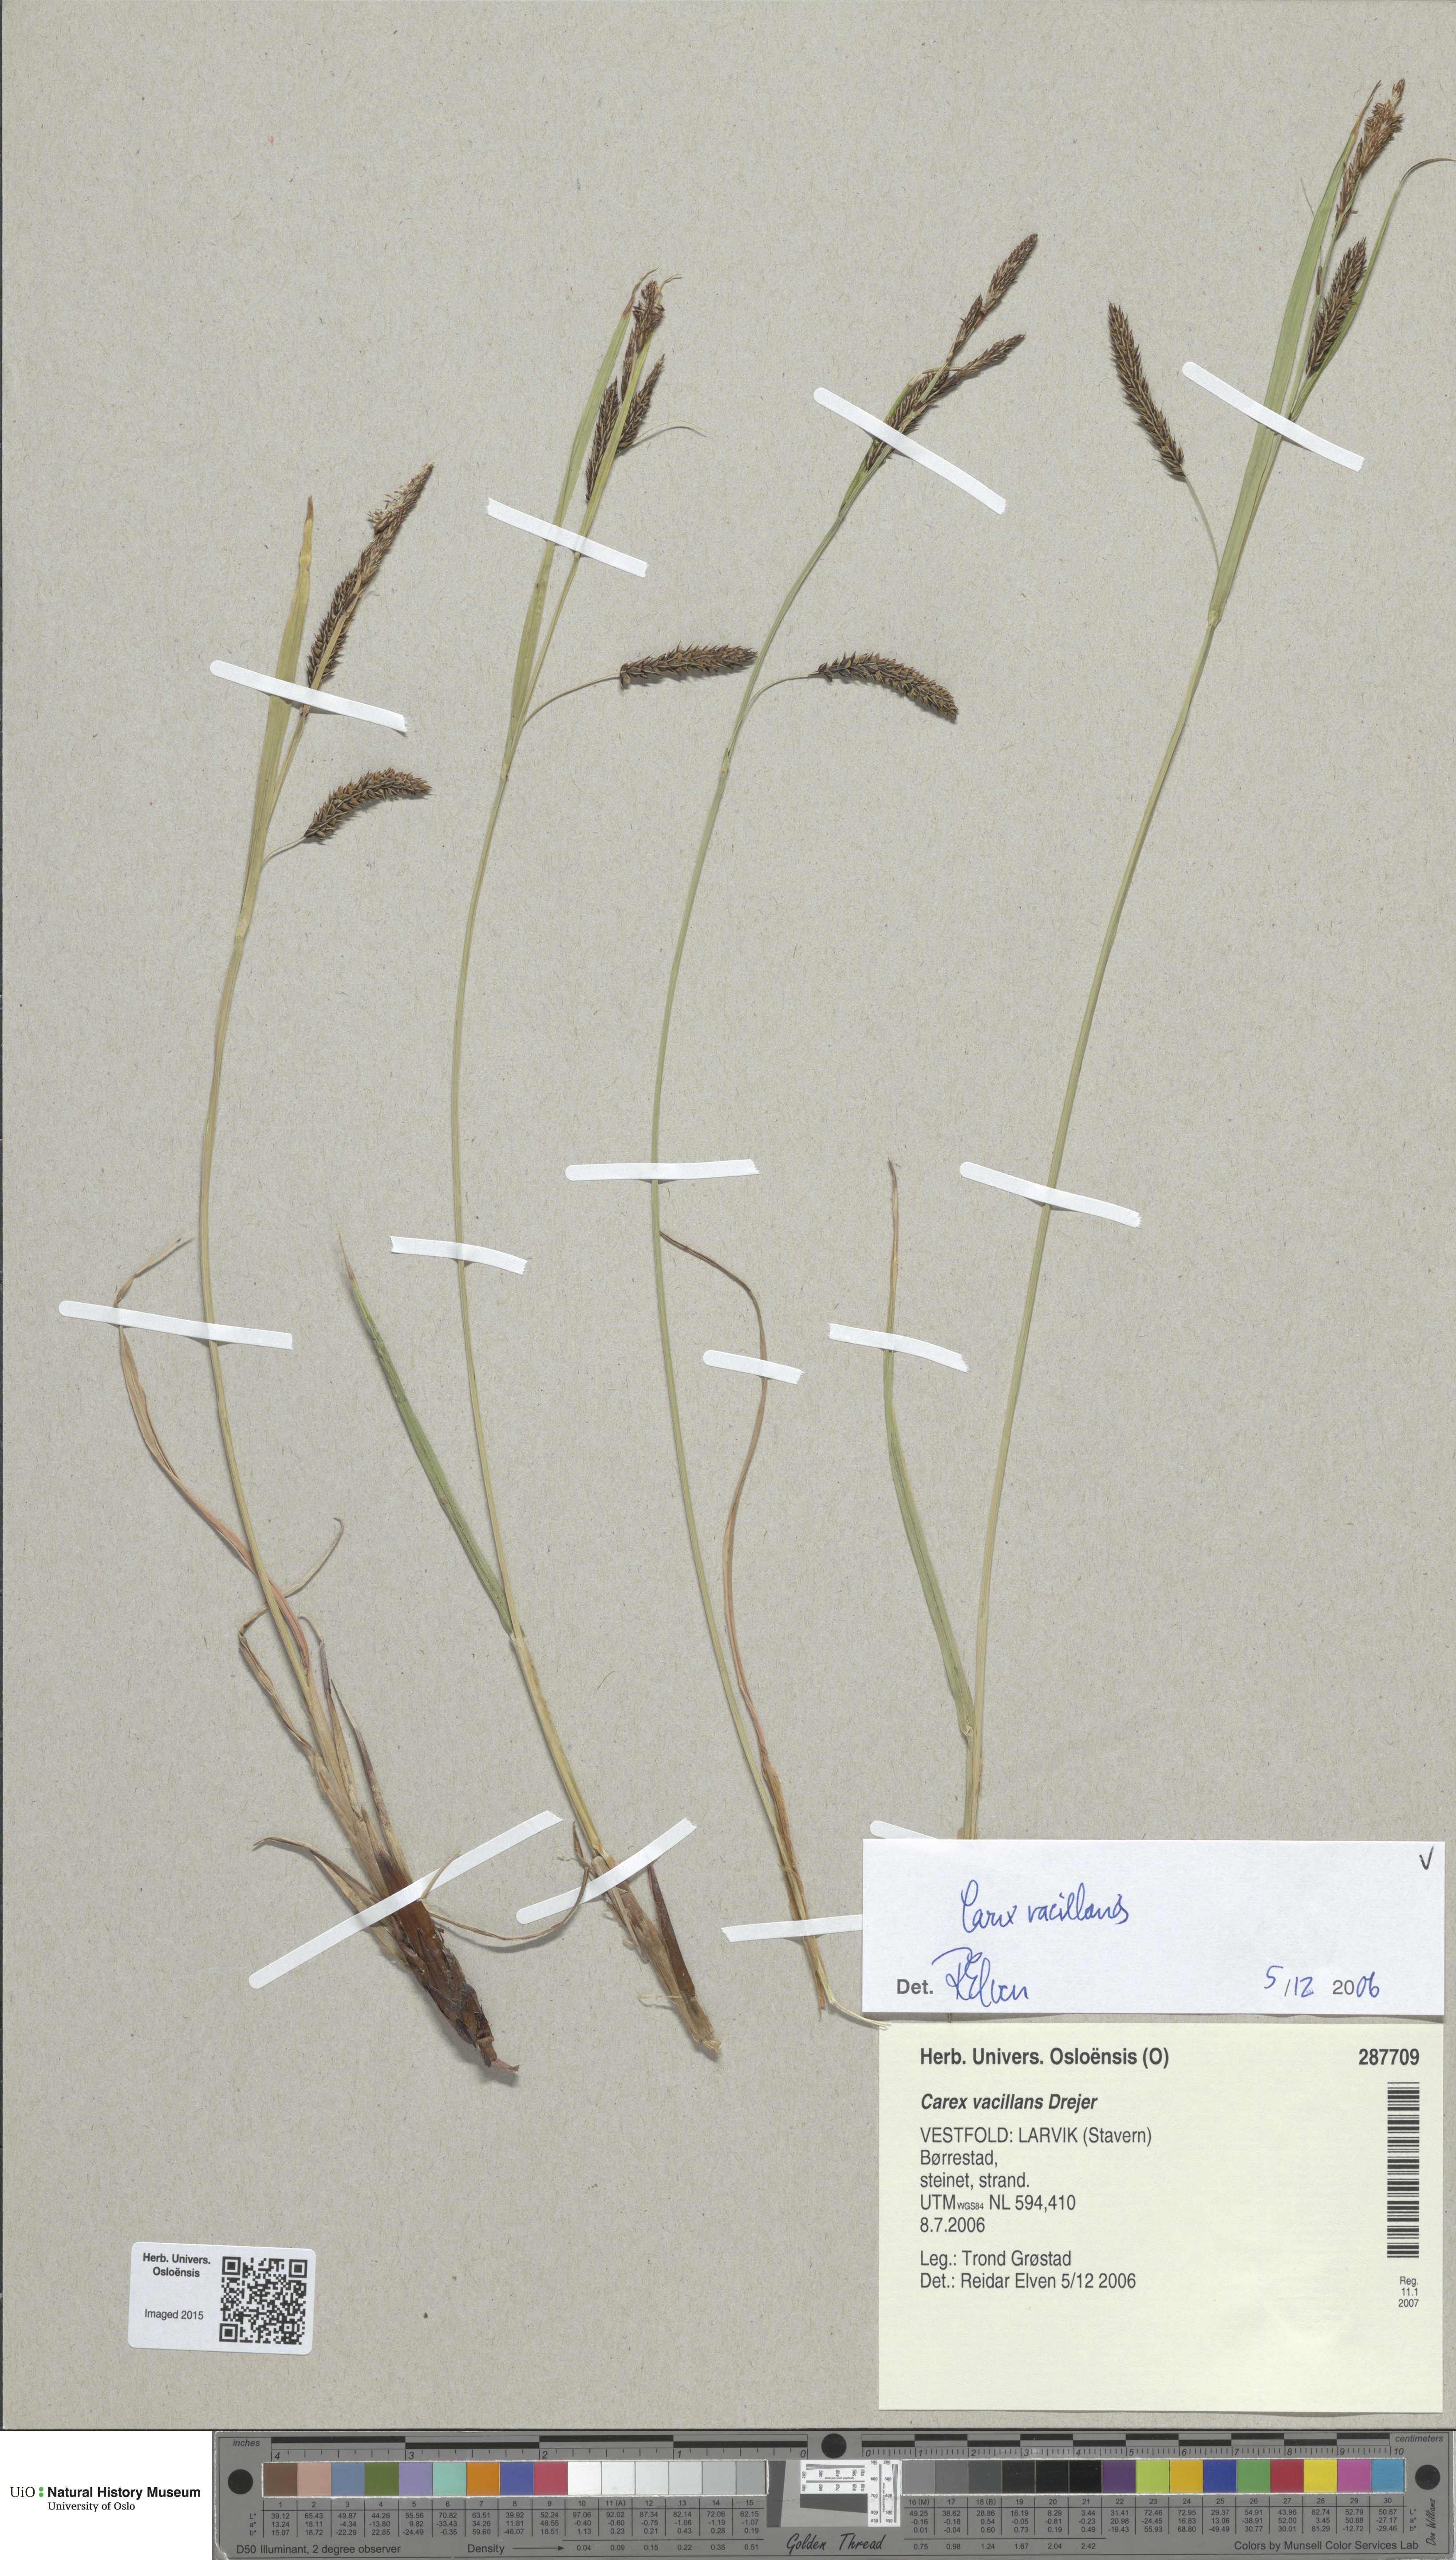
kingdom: Plantae
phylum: Tracheophyta
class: Liliopsida
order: Poales
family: Cyperaceae
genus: Carex
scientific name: Carex vacillans
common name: Sedge
